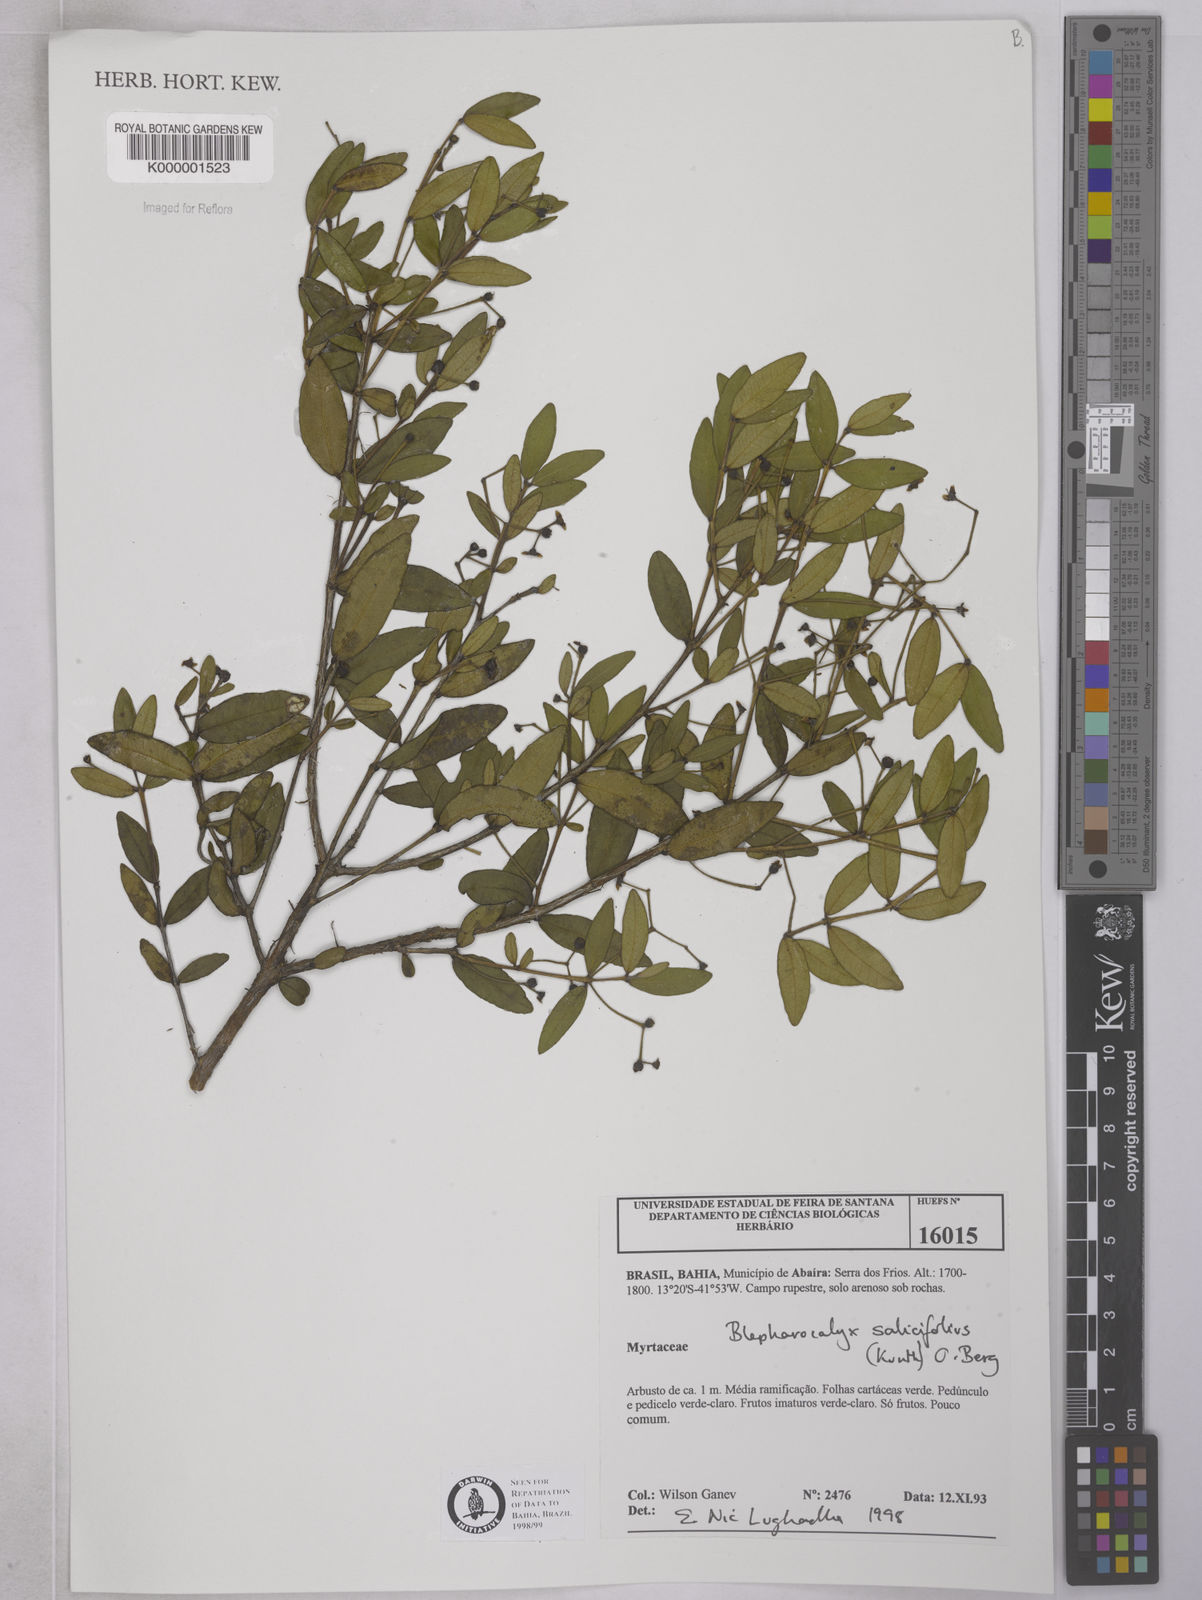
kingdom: Plantae
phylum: Tracheophyta
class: Magnoliopsida
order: Myrtales
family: Myrtaceae
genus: Blepharocalyx
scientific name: Blepharocalyx salicifolius
